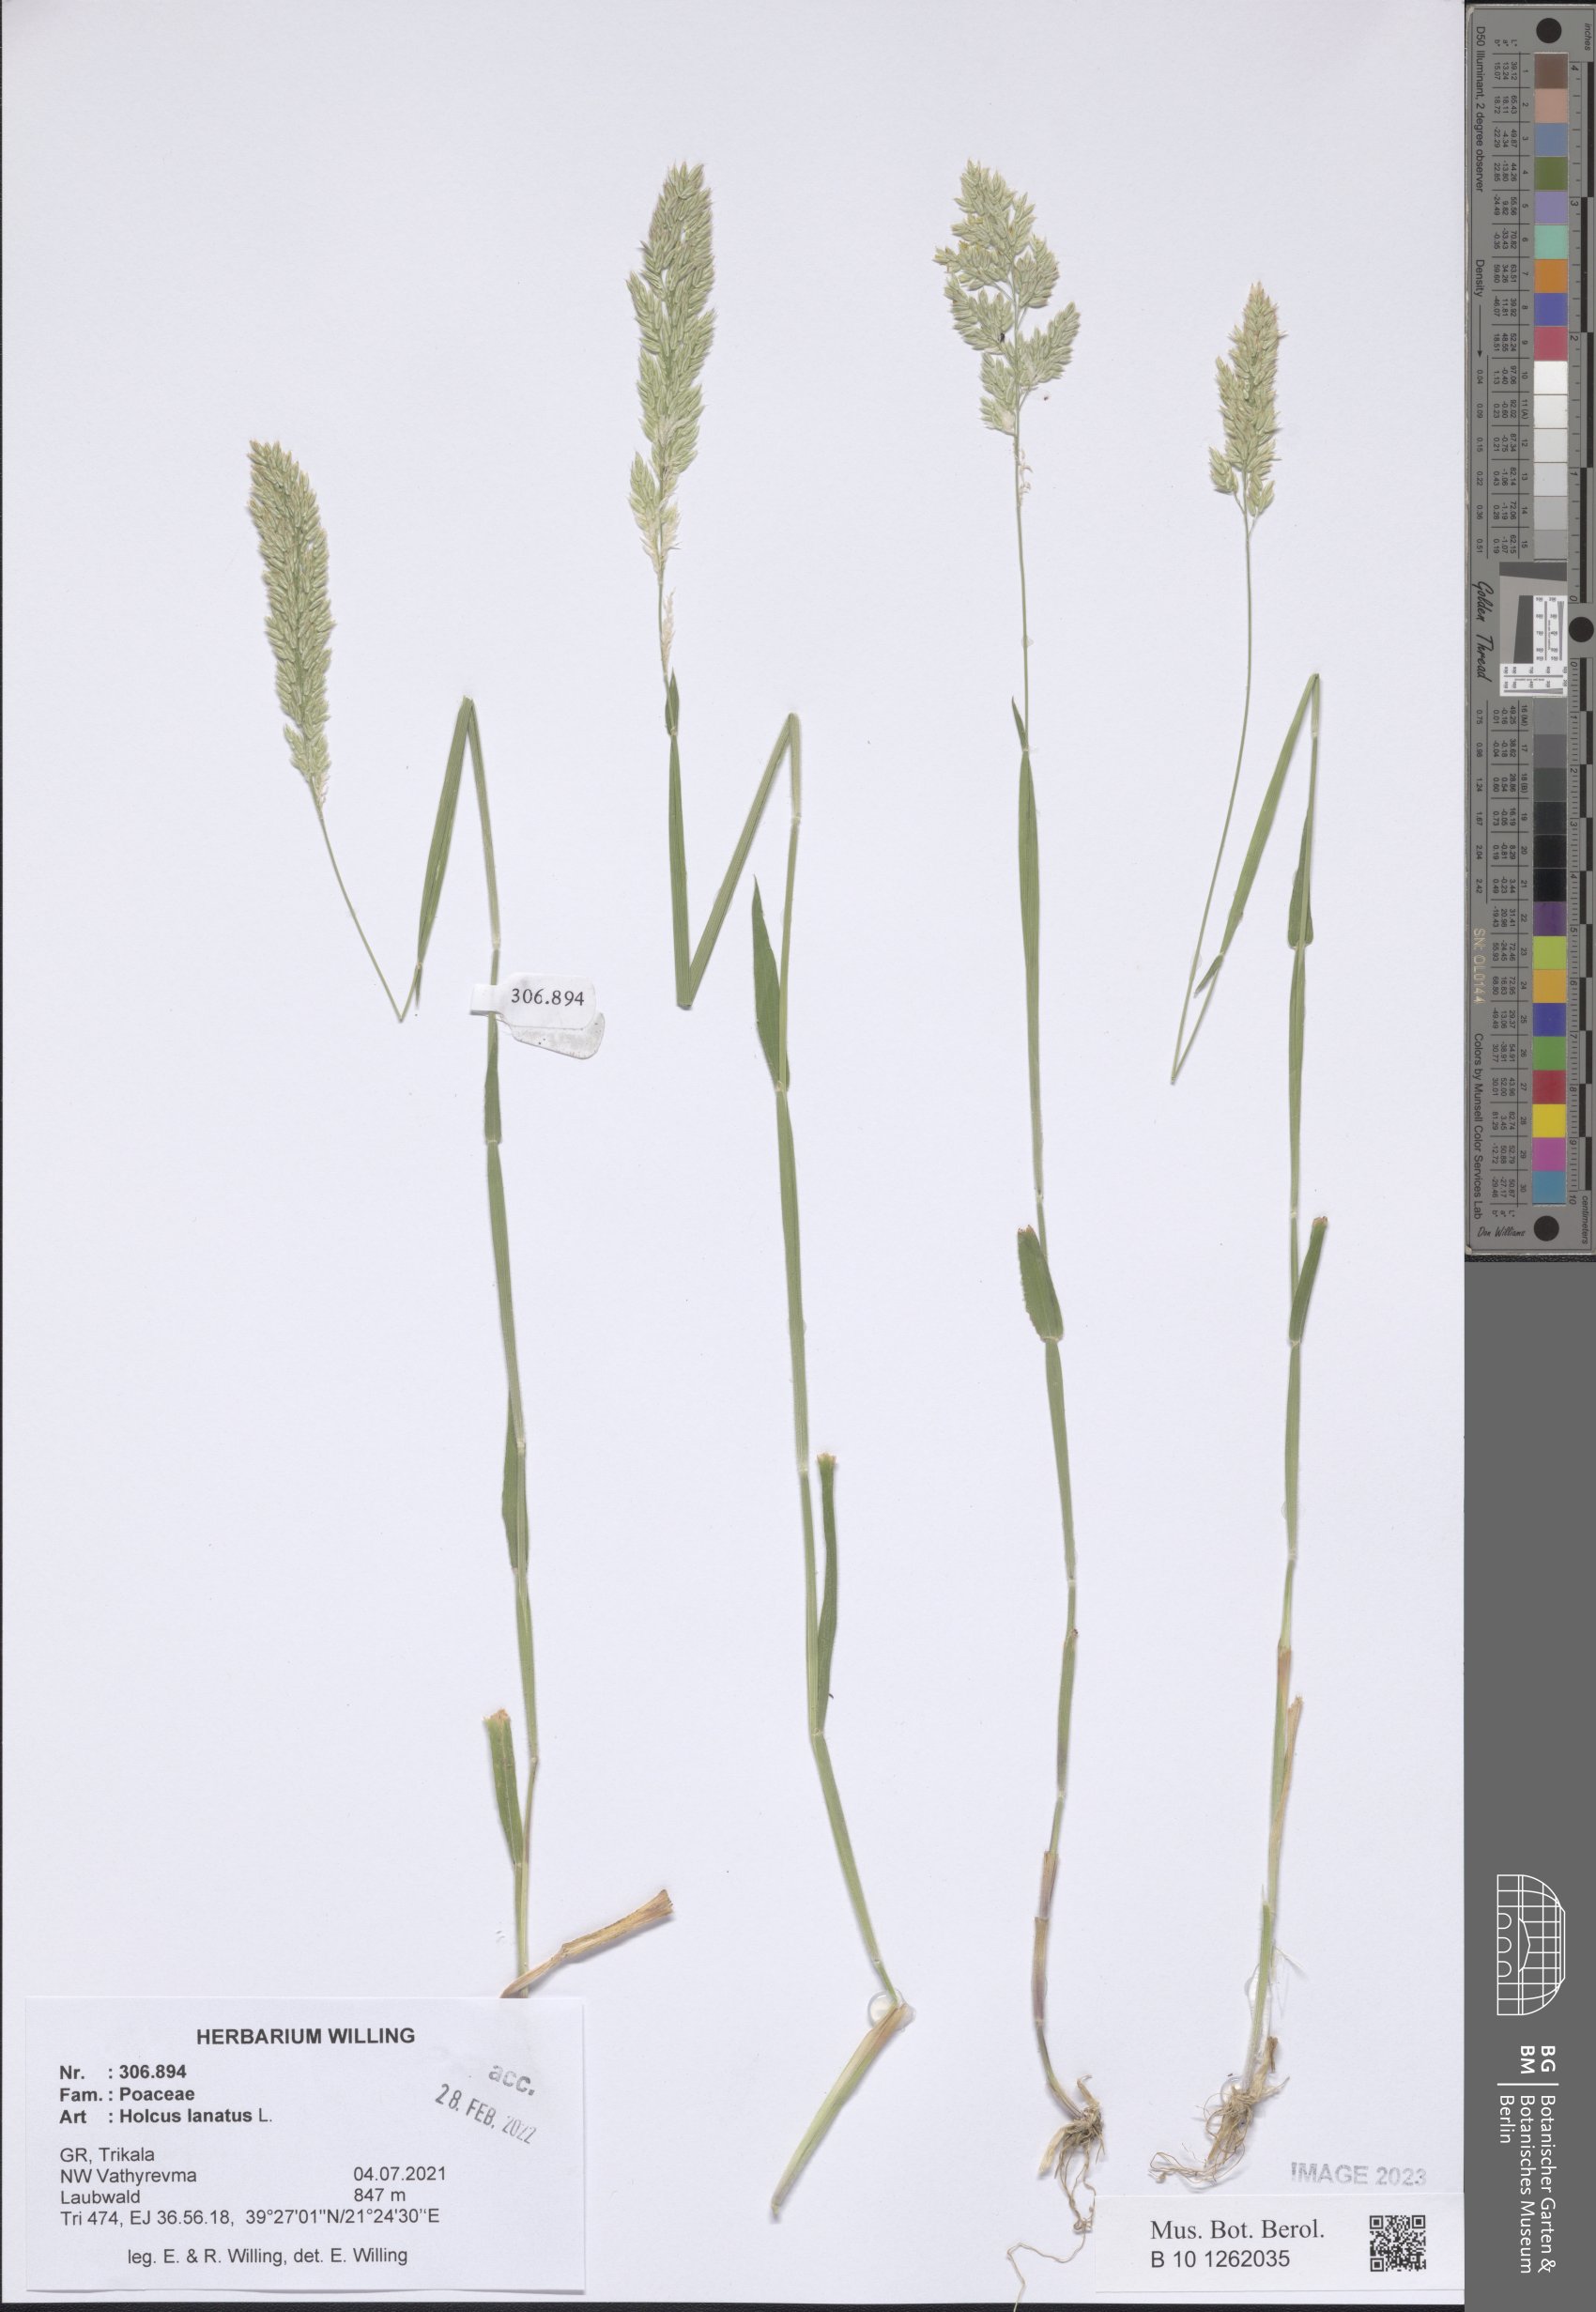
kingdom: Plantae
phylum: Tracheophyta
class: Liliopsida
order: Poales
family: Poaceae
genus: Holcus
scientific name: Holcus lanatus
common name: Yorkshire-fog
